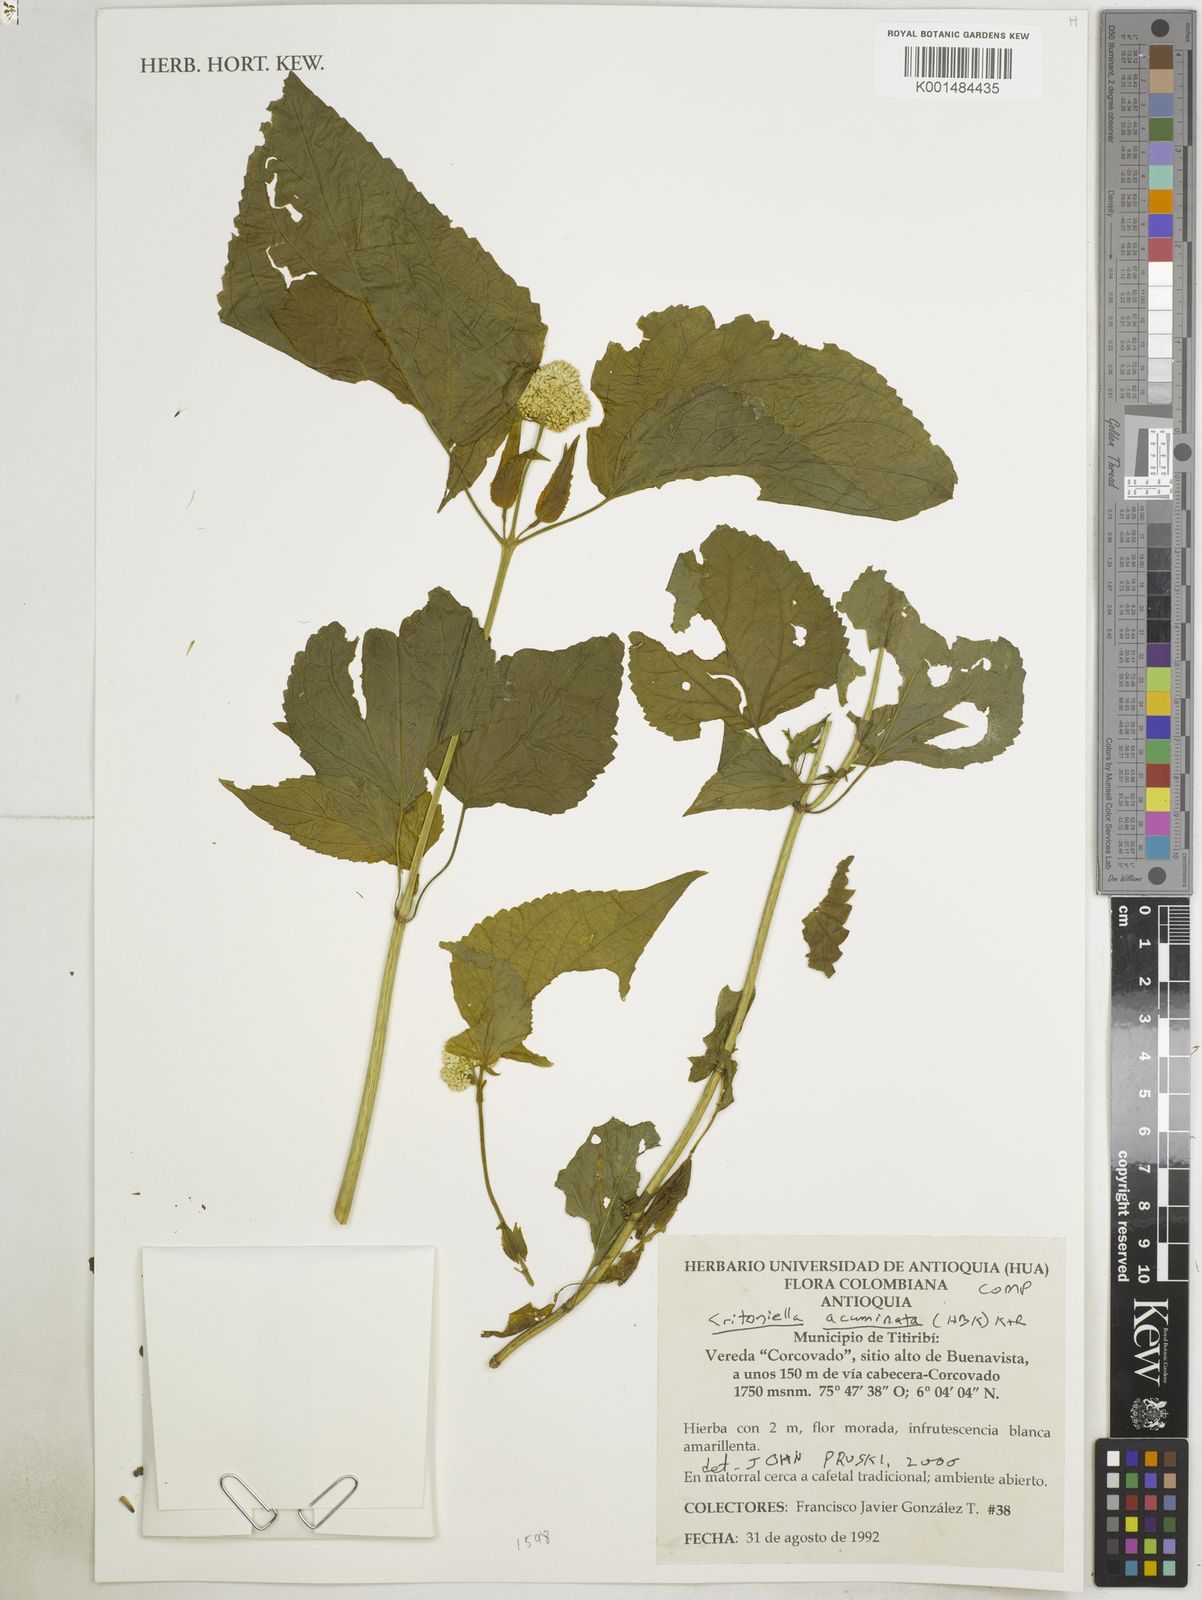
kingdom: Plantae
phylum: Tracheophyta
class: Magnoliopsida
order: Asterales
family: Asteraceae
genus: Critoniella
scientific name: Critoniella acuminata
